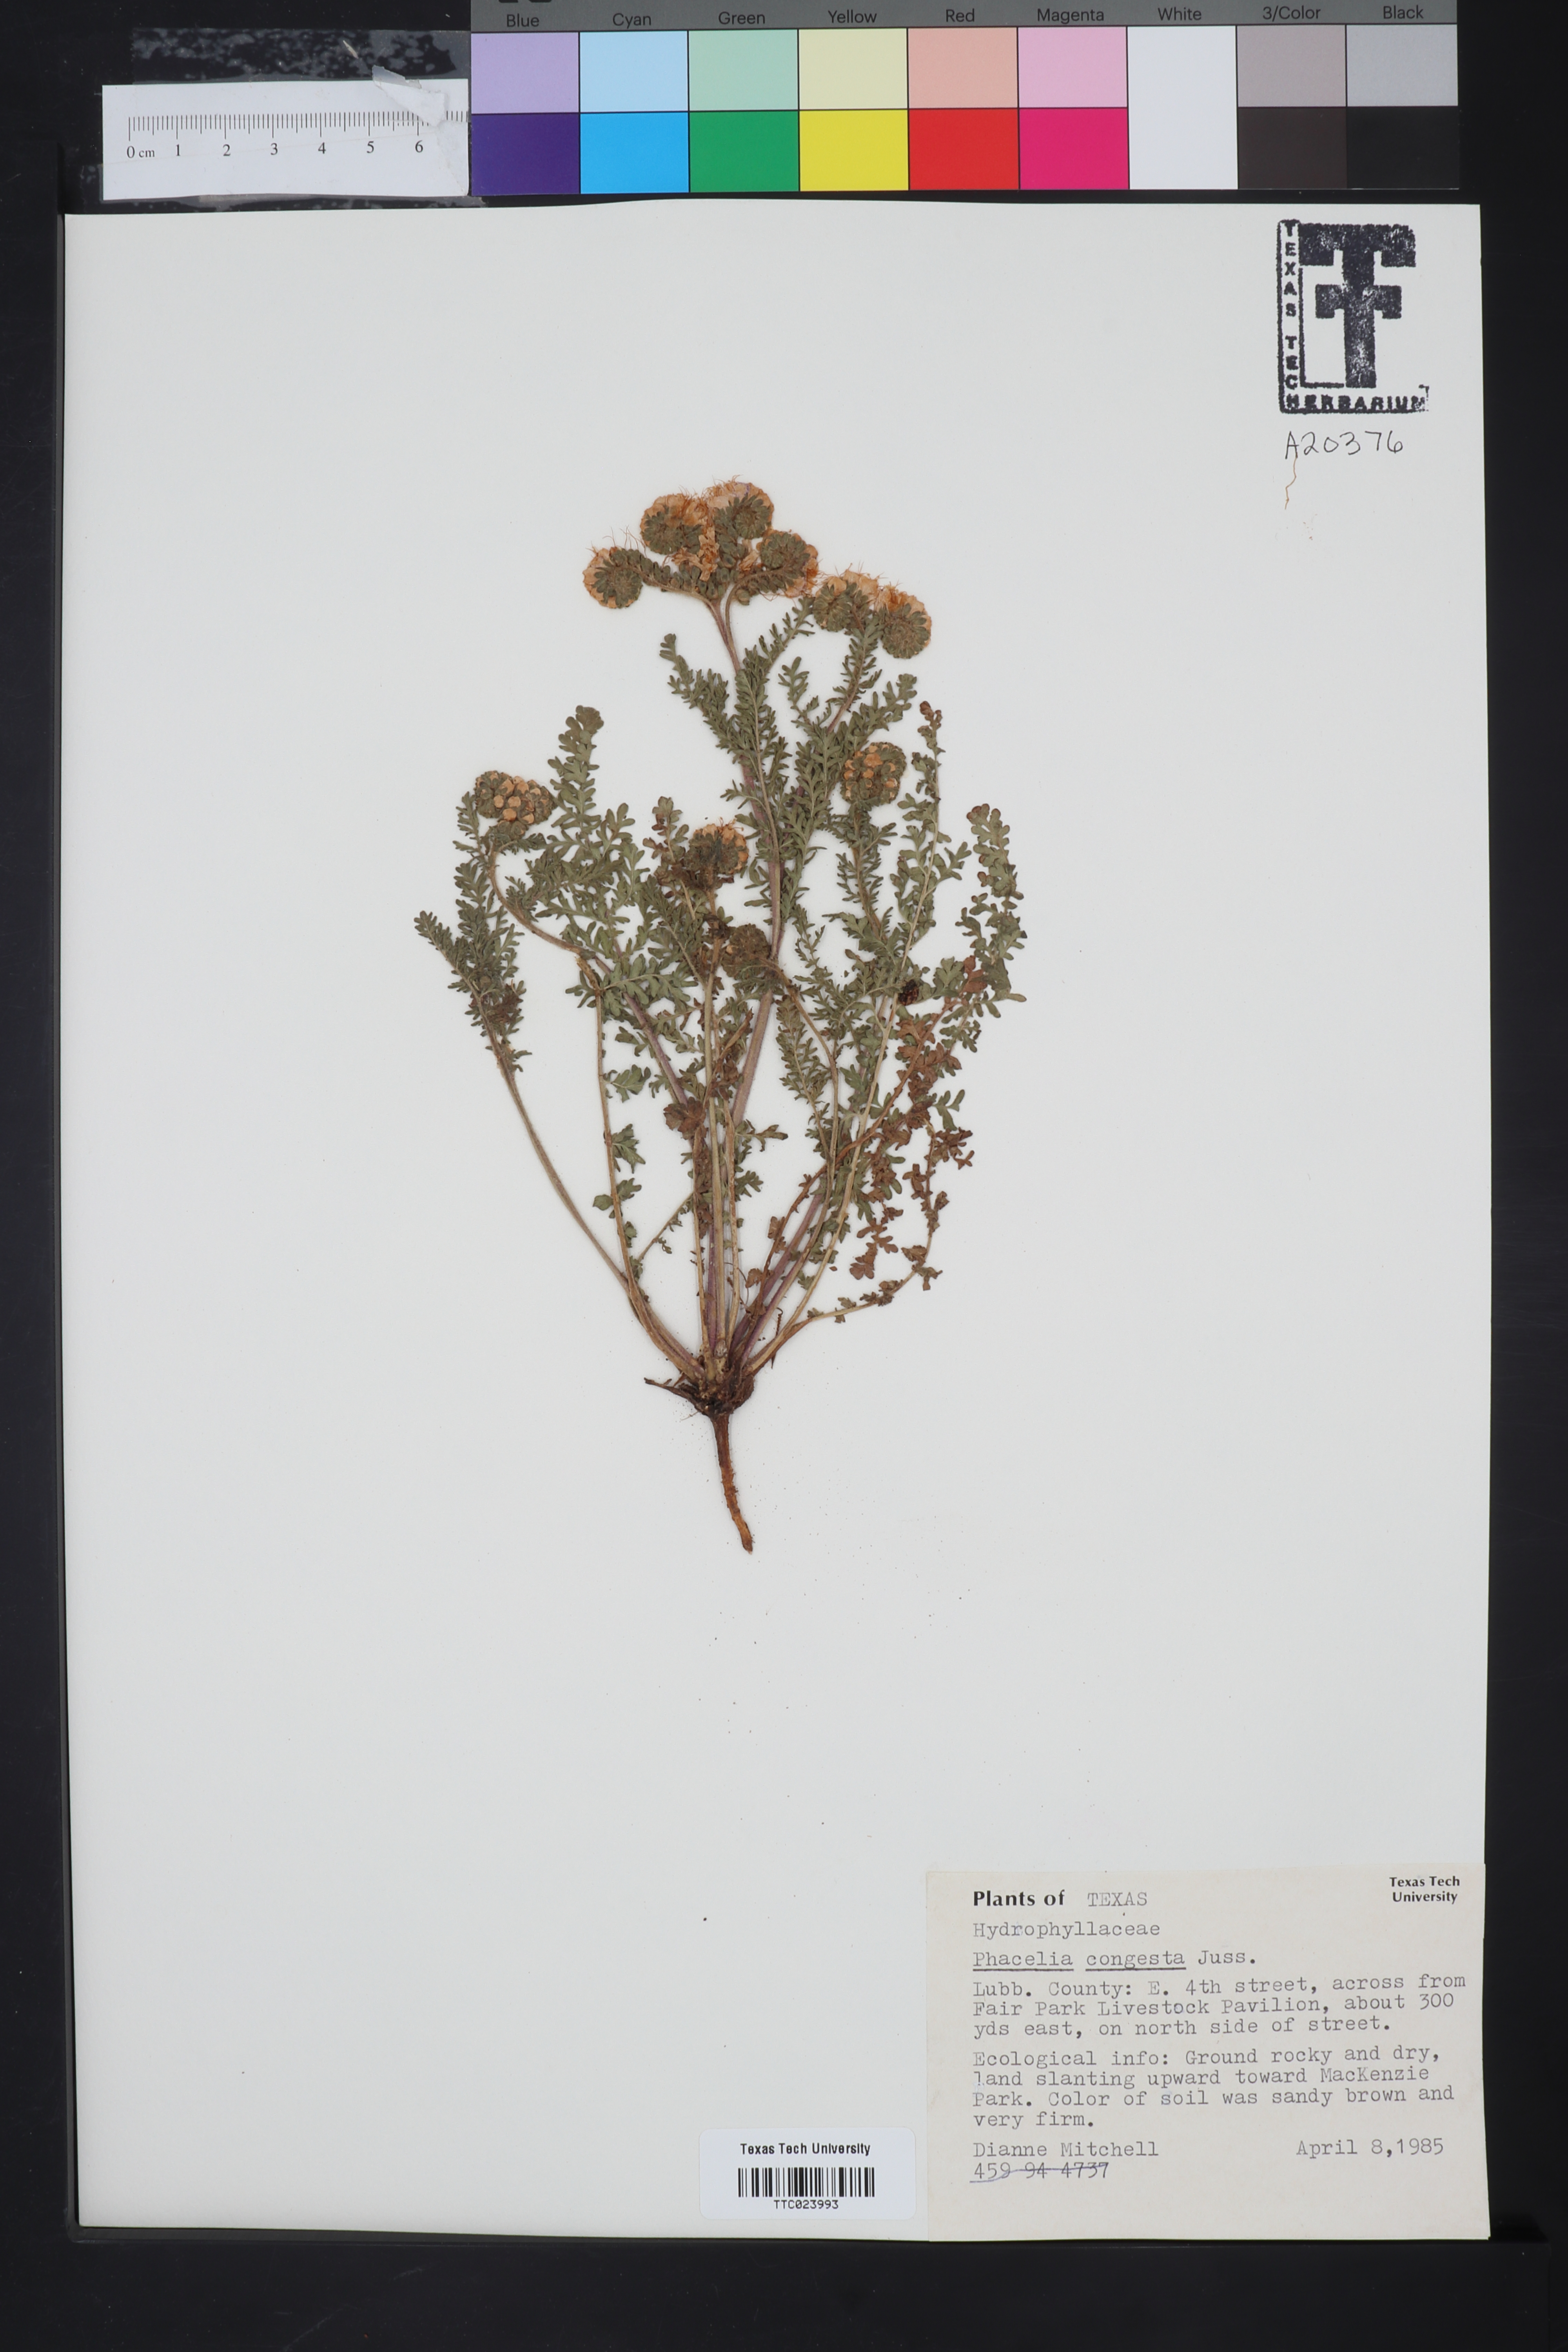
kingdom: Plantae
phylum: Tracheophyta
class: Magnoliopsida
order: Boraginales
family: Hydrophyllaceae
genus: Phacelia
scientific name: Phacelia congesta
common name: Blue curls
